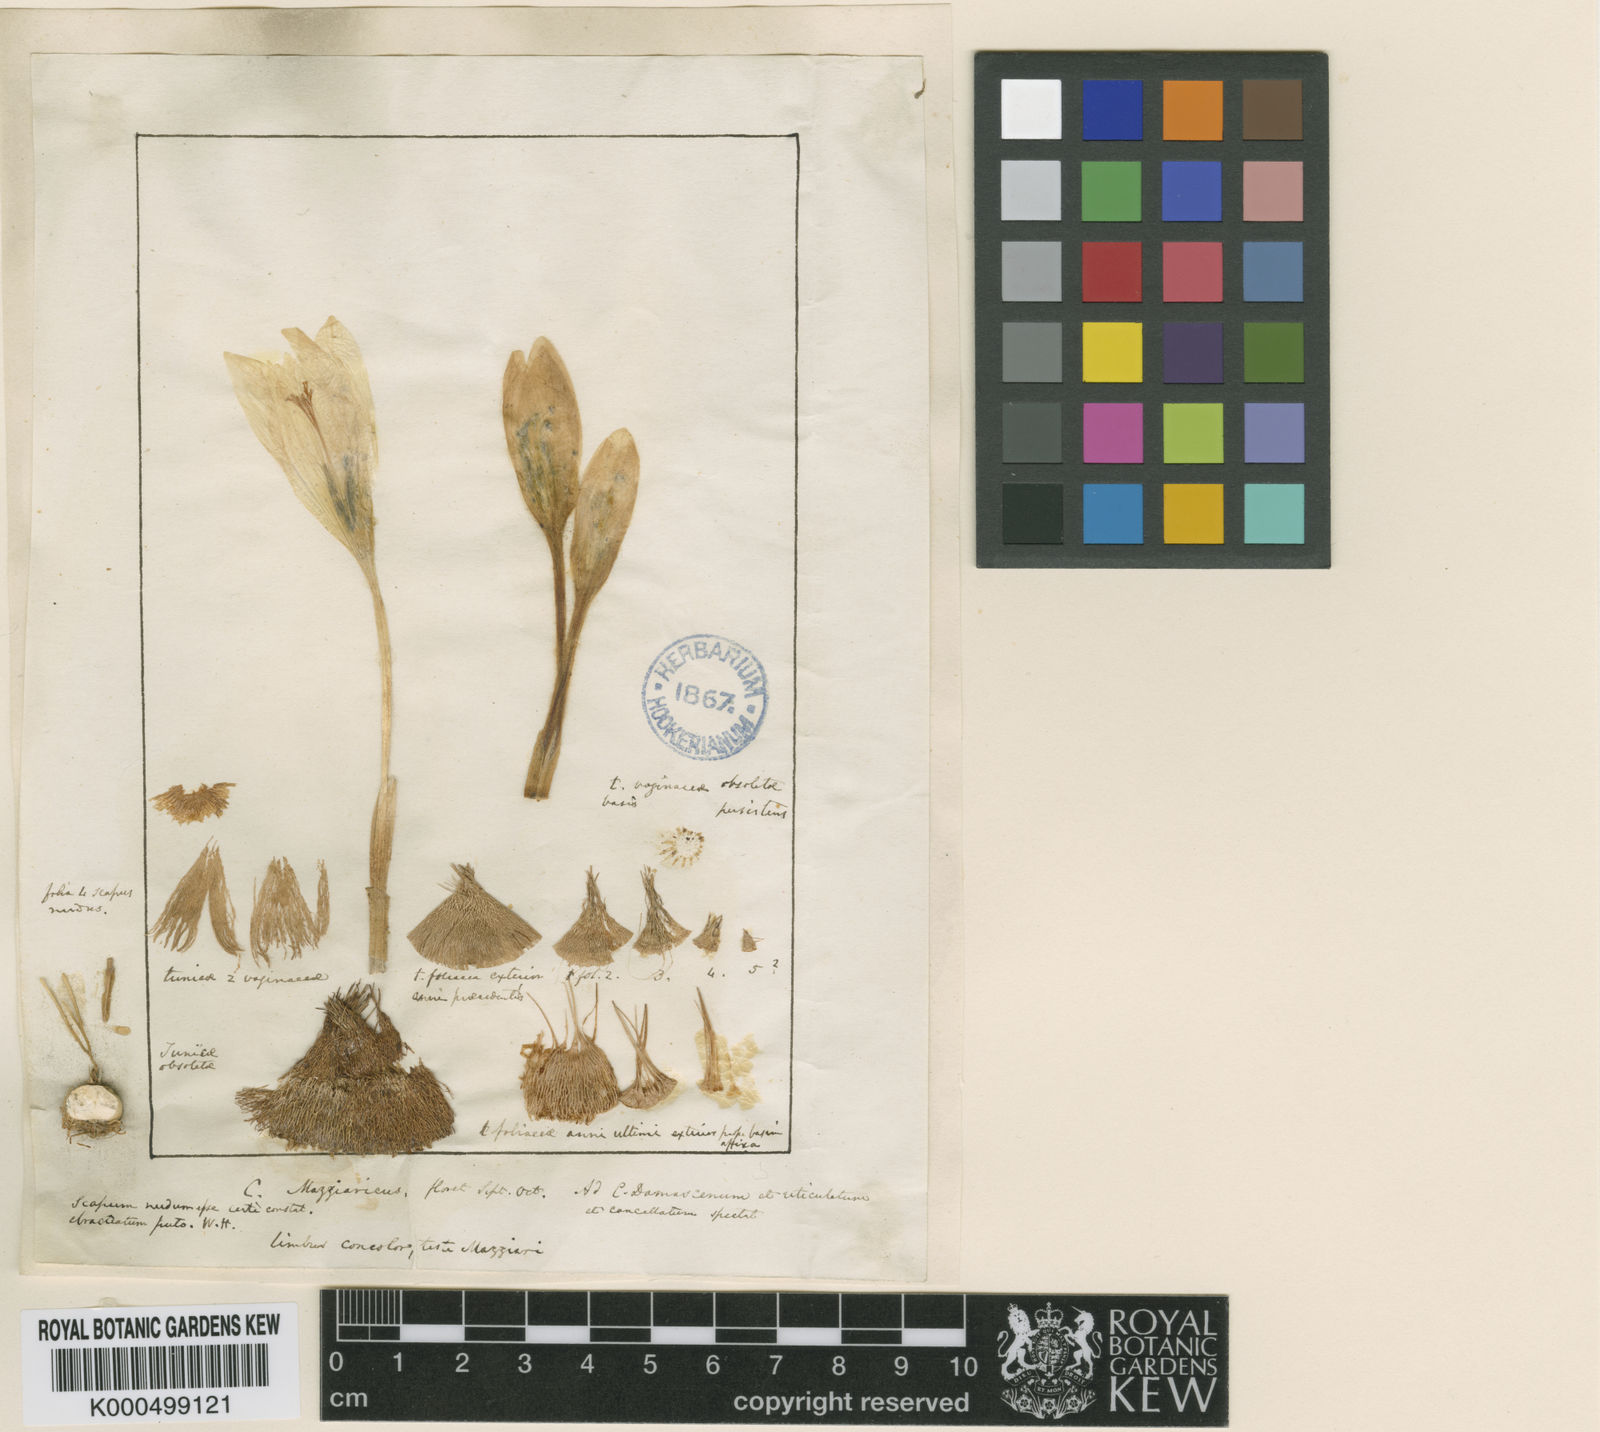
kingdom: Plantae
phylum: Tracheophyta
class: Liliopsida
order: Asparagales
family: Iridaceae
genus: Crocus
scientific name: Crocus mazziaricus
